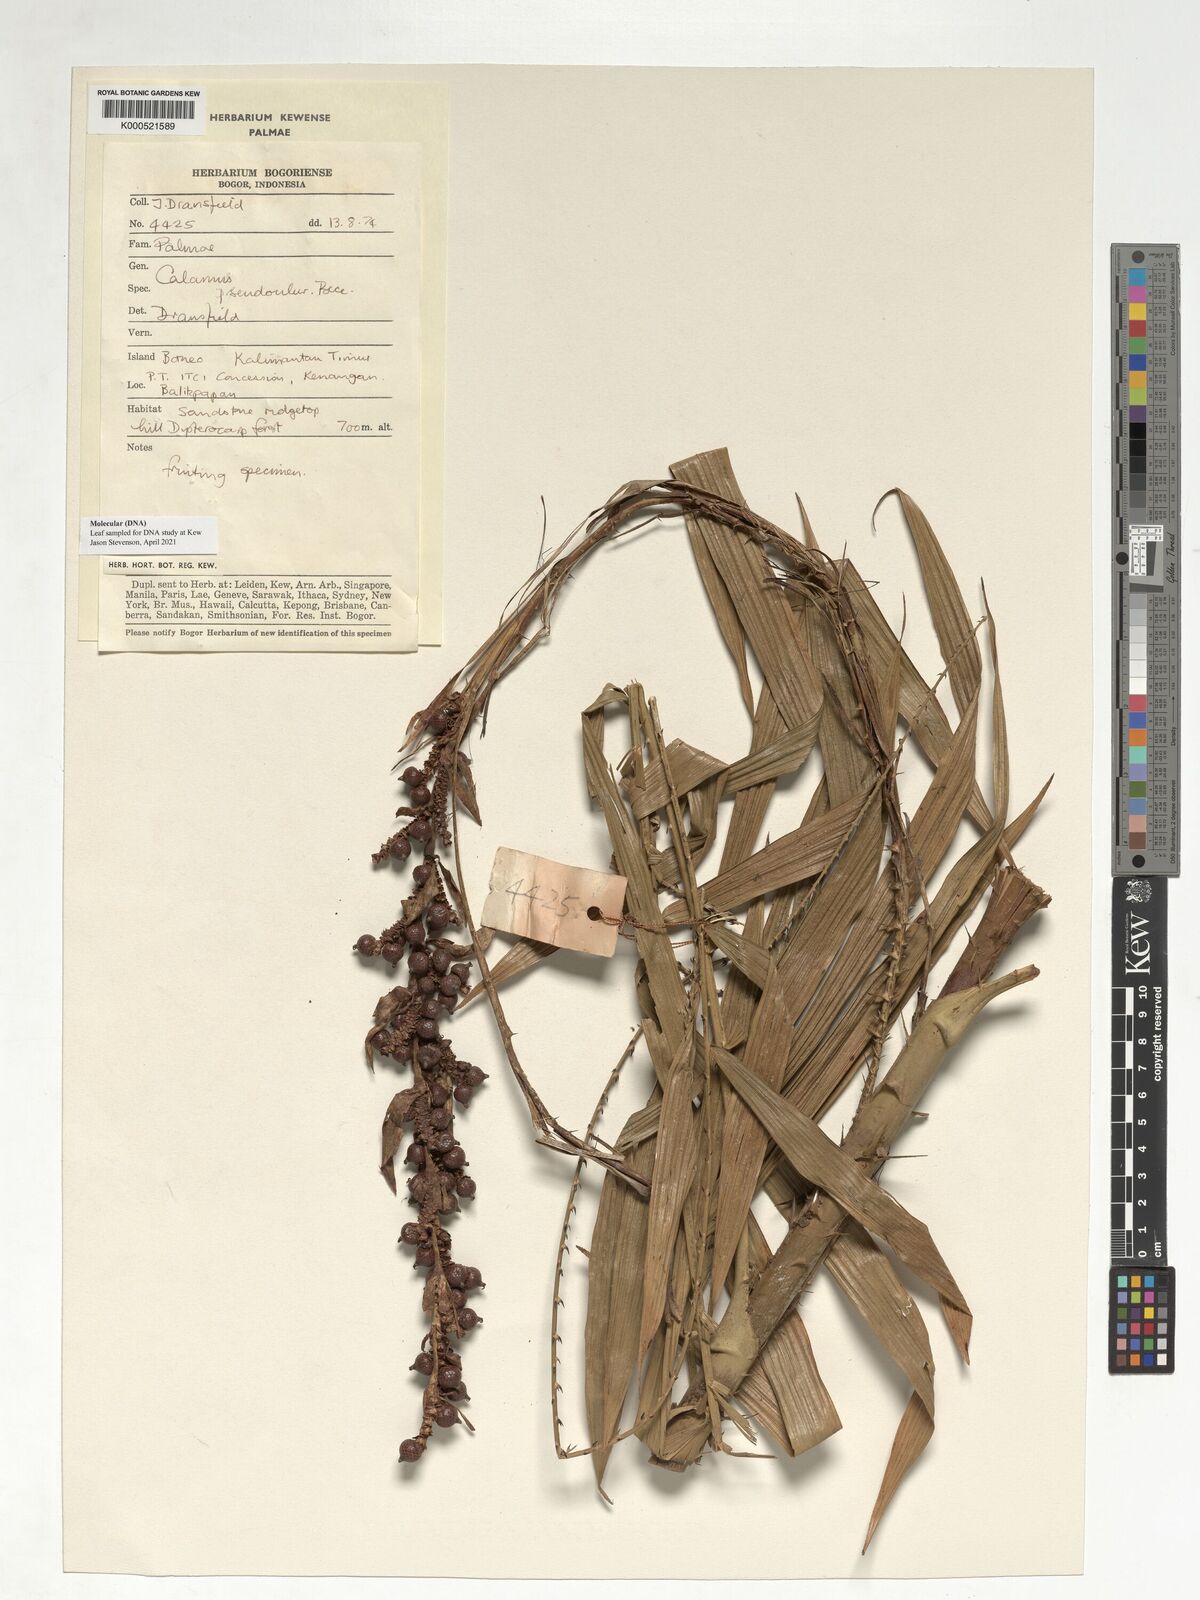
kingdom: Plantae
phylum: Tracheophyta
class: Liliopsida
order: Arecales
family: Arecaceae
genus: Calamus
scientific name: Calamus erioacanthus
